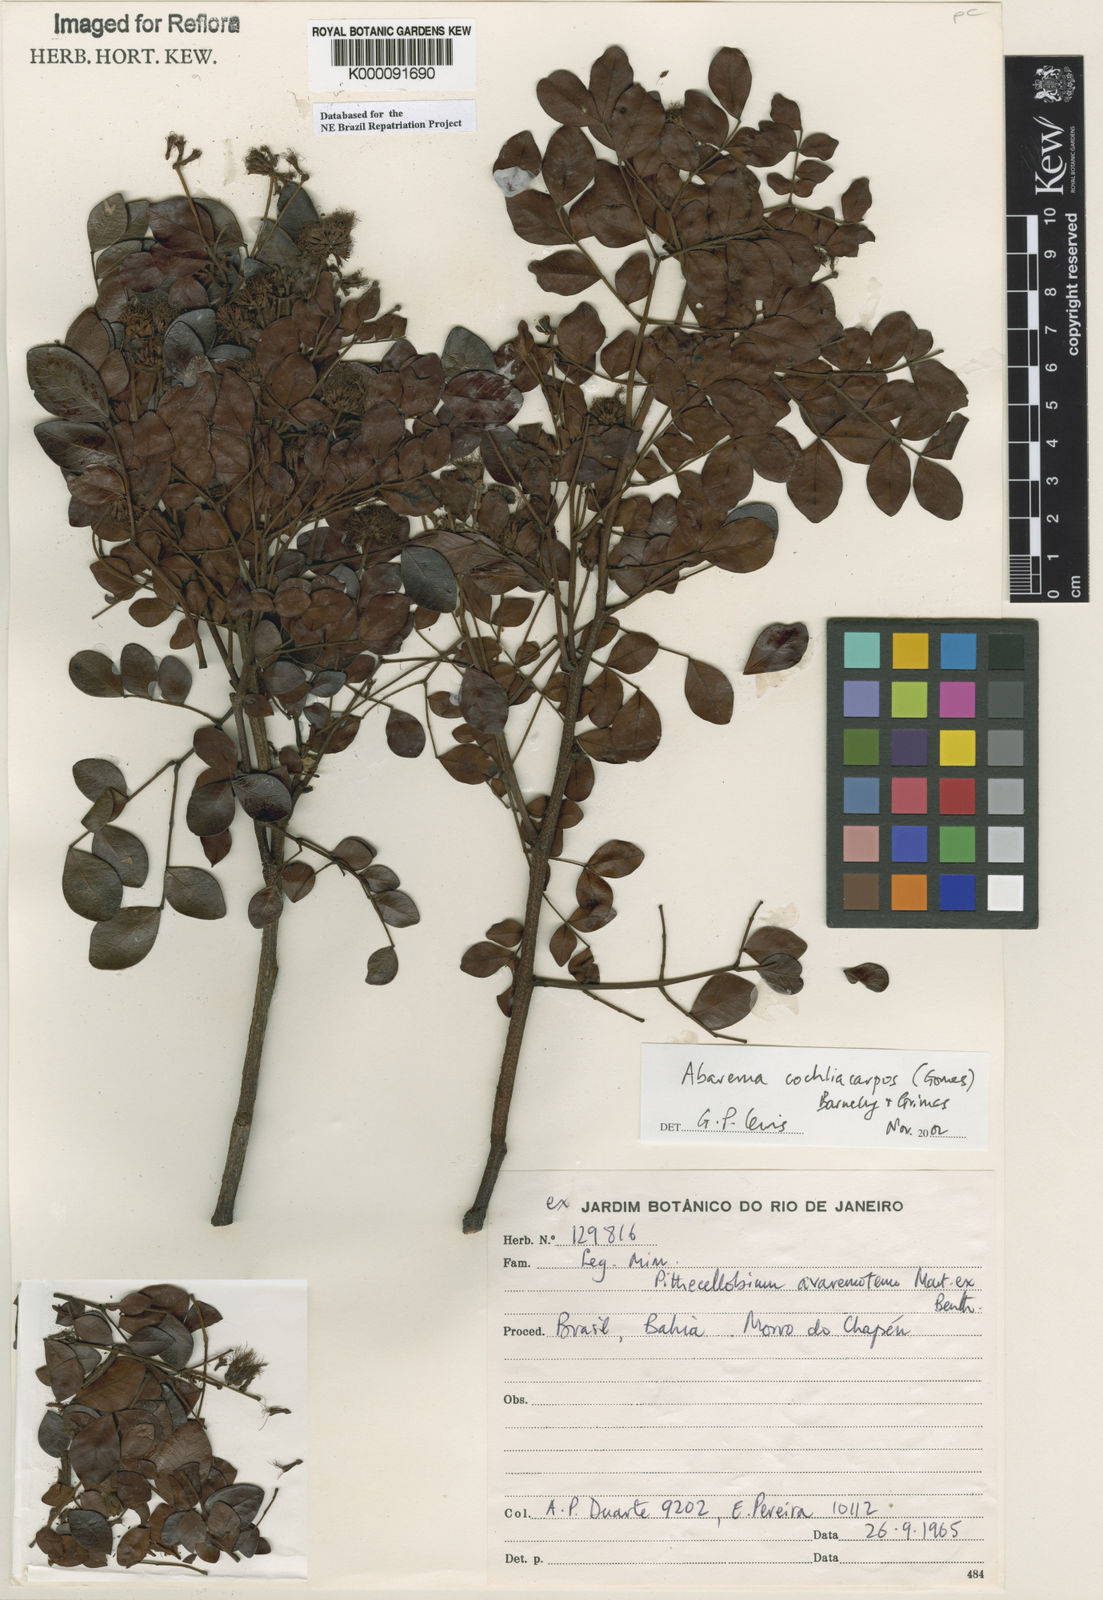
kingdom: Plantae
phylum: Tracheophyta
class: Magnoliopsida
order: Fabales
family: Fabaceae
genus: Abarema
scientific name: Abarema
